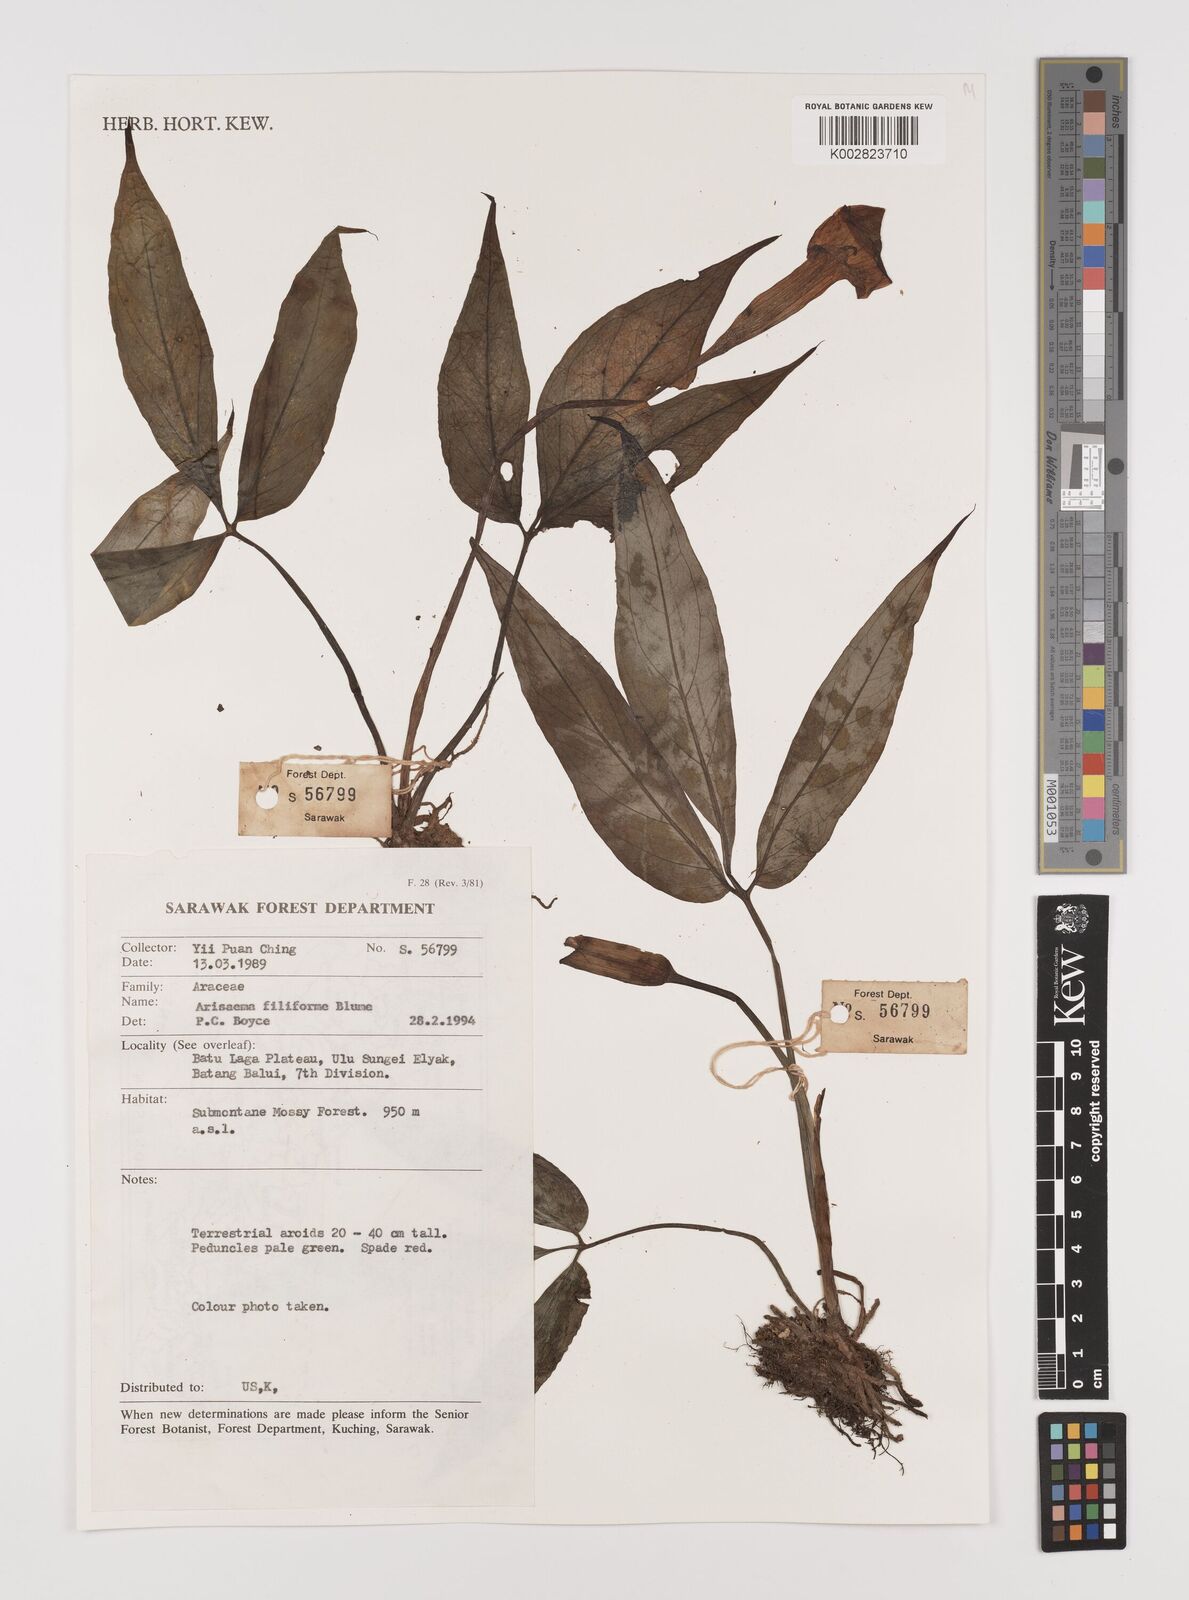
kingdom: Plantae
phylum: Tracheophyta
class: Liliopsida
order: Alismatales
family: Araceae
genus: Arisaema
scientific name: Arisaema filiforme
